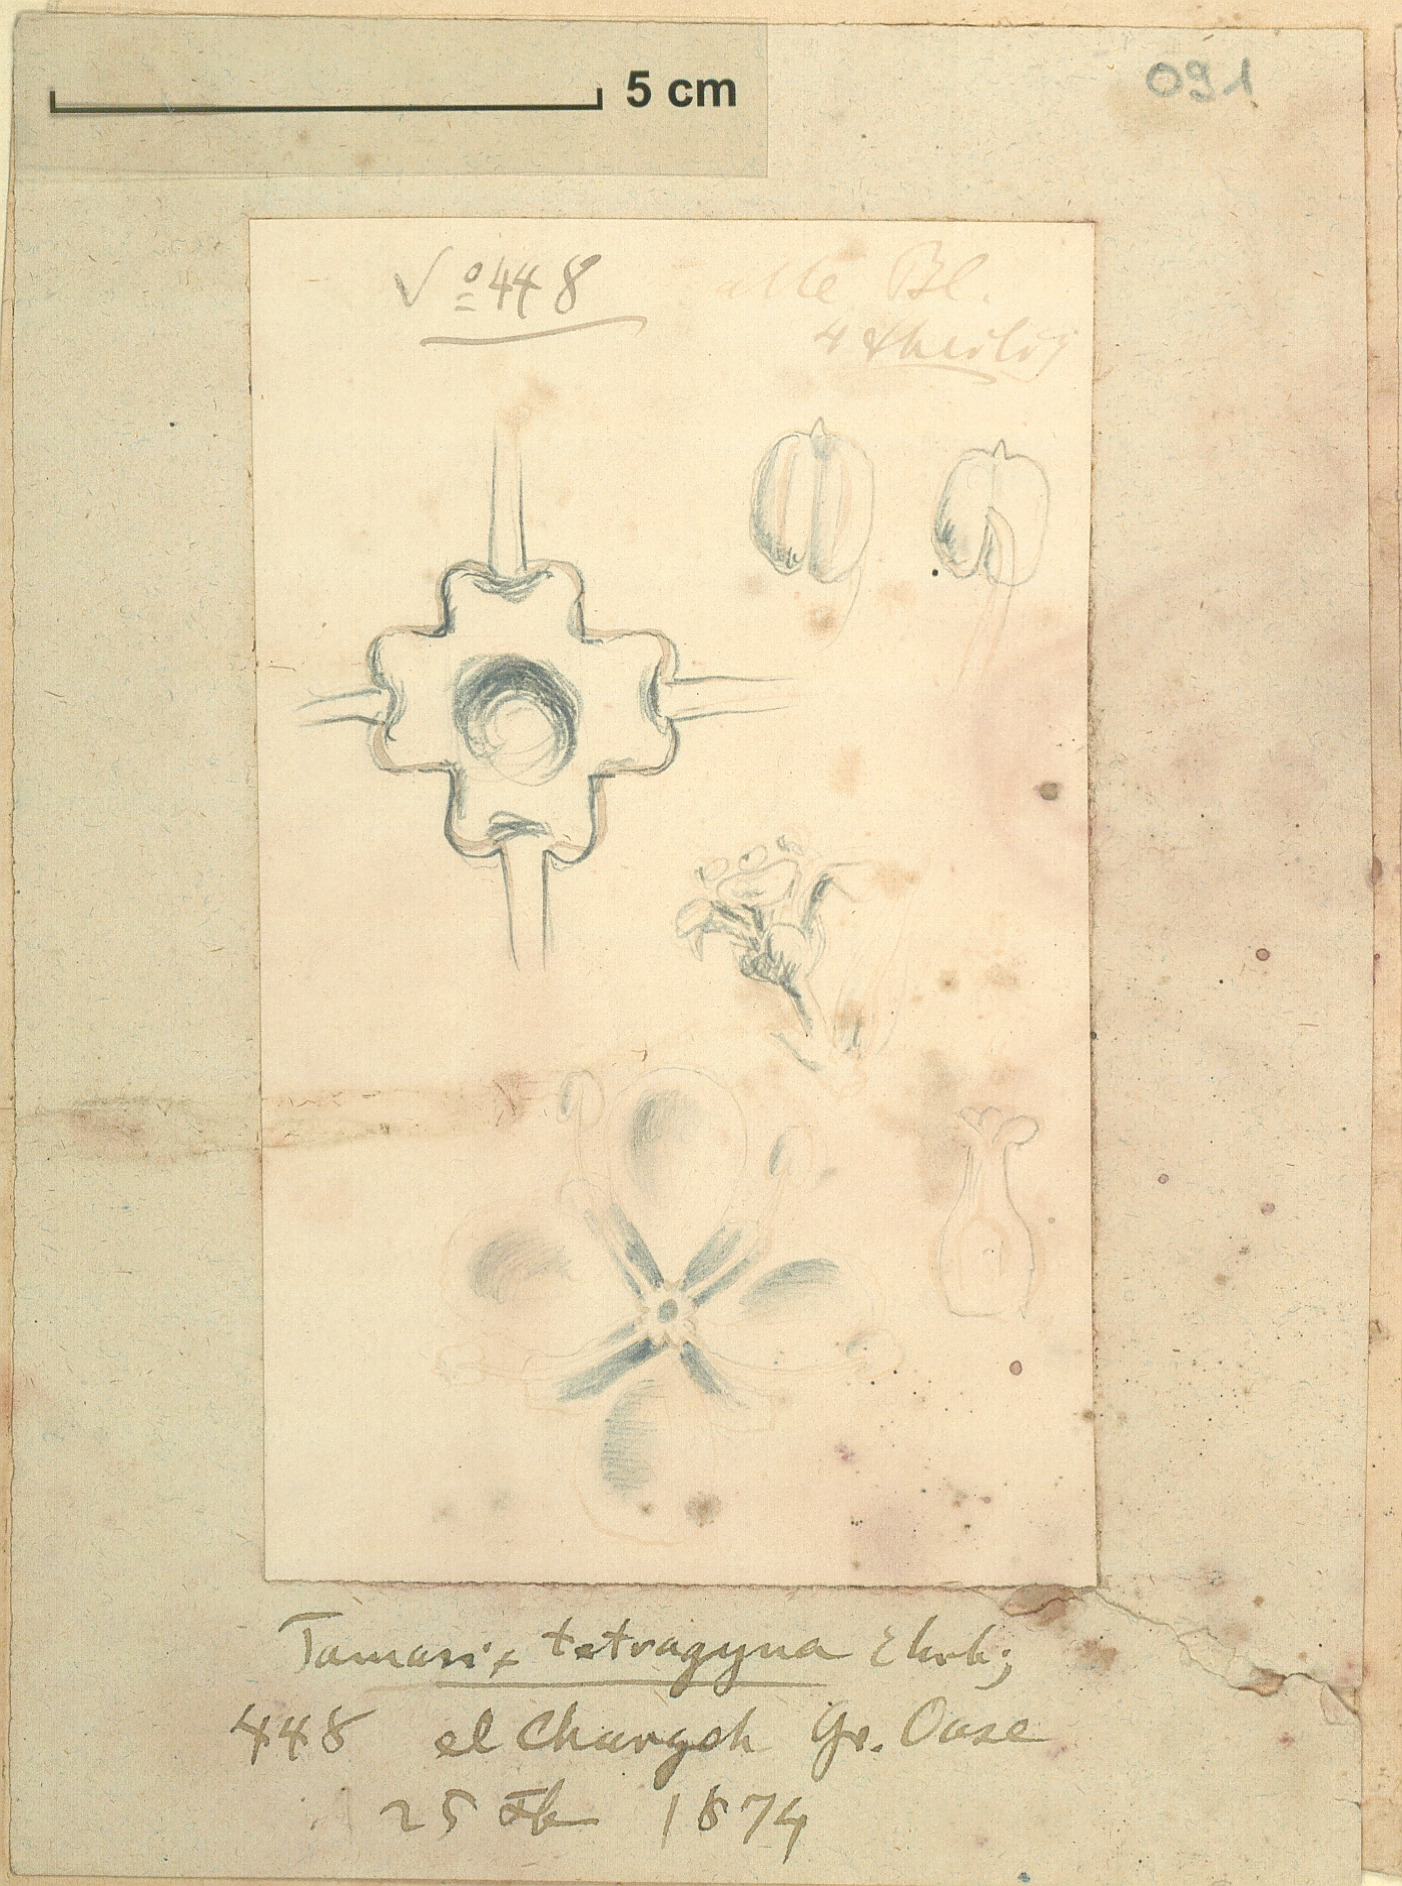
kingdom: Plantae
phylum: Tracheophyta
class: Magnoliopsida
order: Caryophyllales
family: Tamaricaceae
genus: Tamarix
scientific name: Tamarix tetragyna
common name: Four-stamen tamarisk
